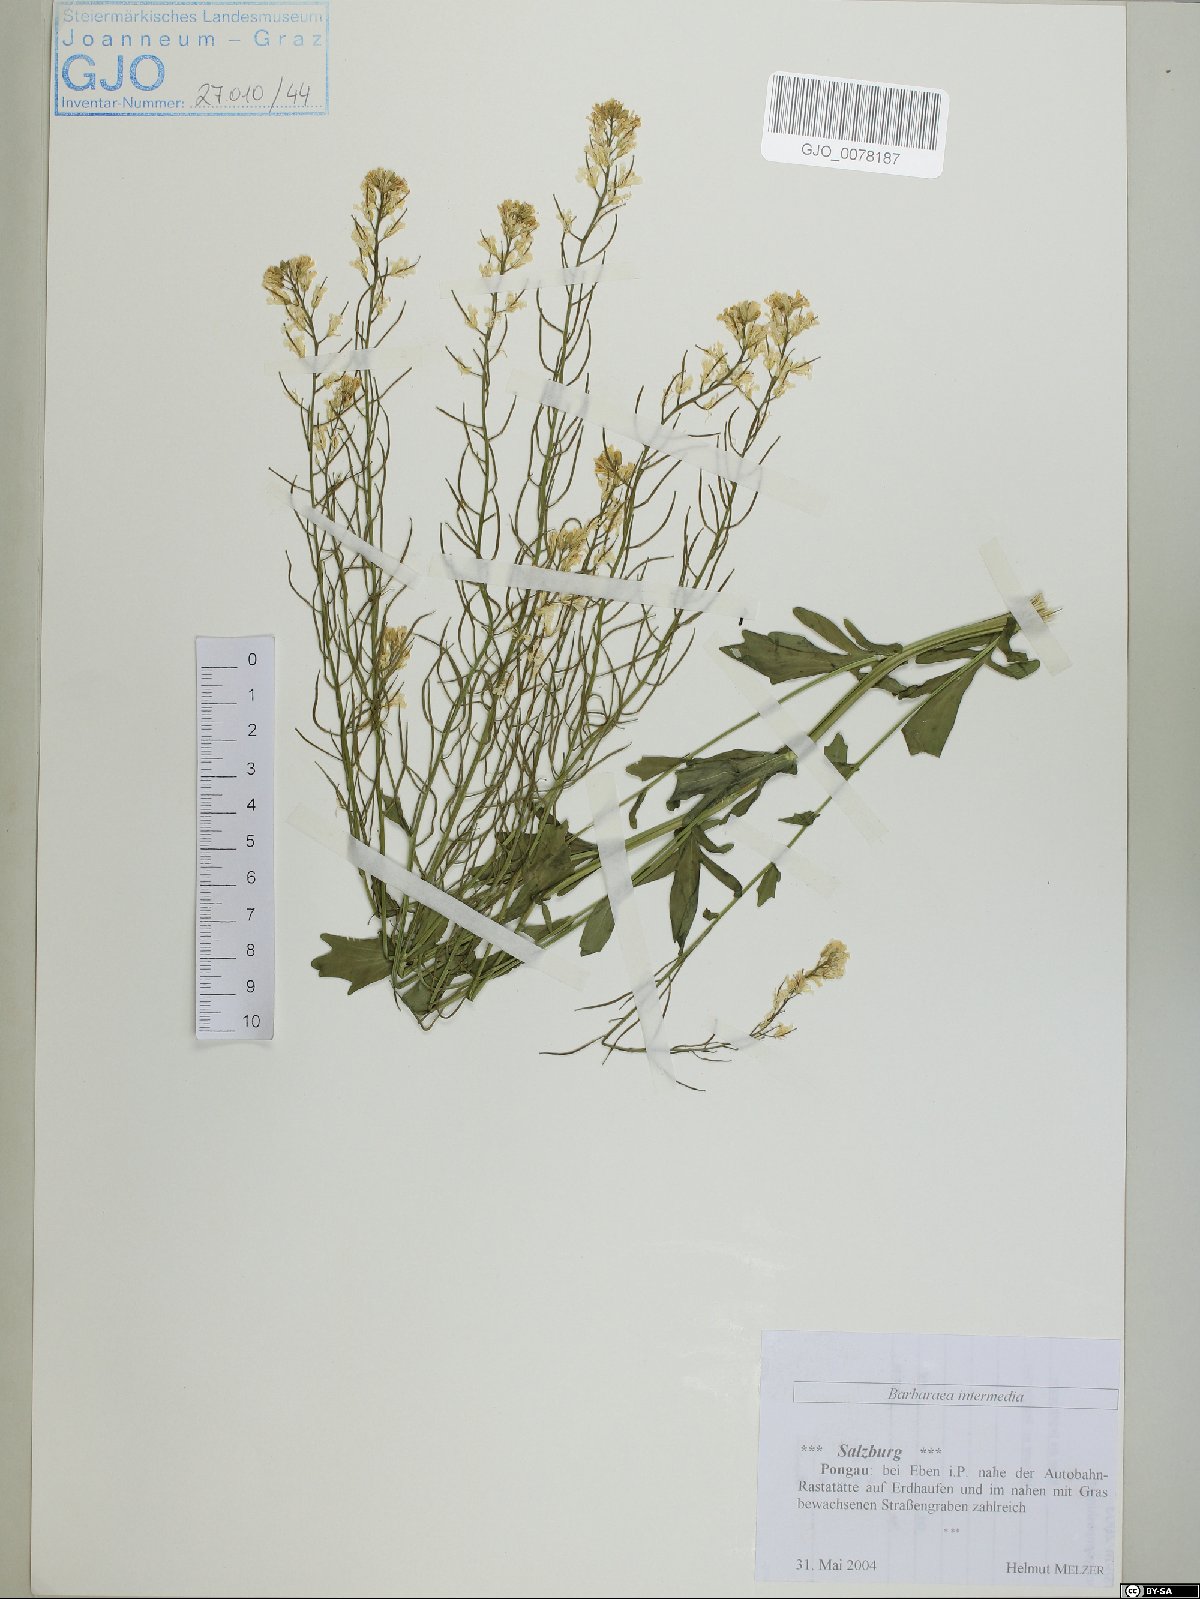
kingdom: Plantae
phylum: Tracheophyta
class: Magnoliopsida
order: Brassicales
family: Brassicaceae
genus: Barbarea
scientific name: Barbarea intermedia
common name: Medium-flowered winter-cress
